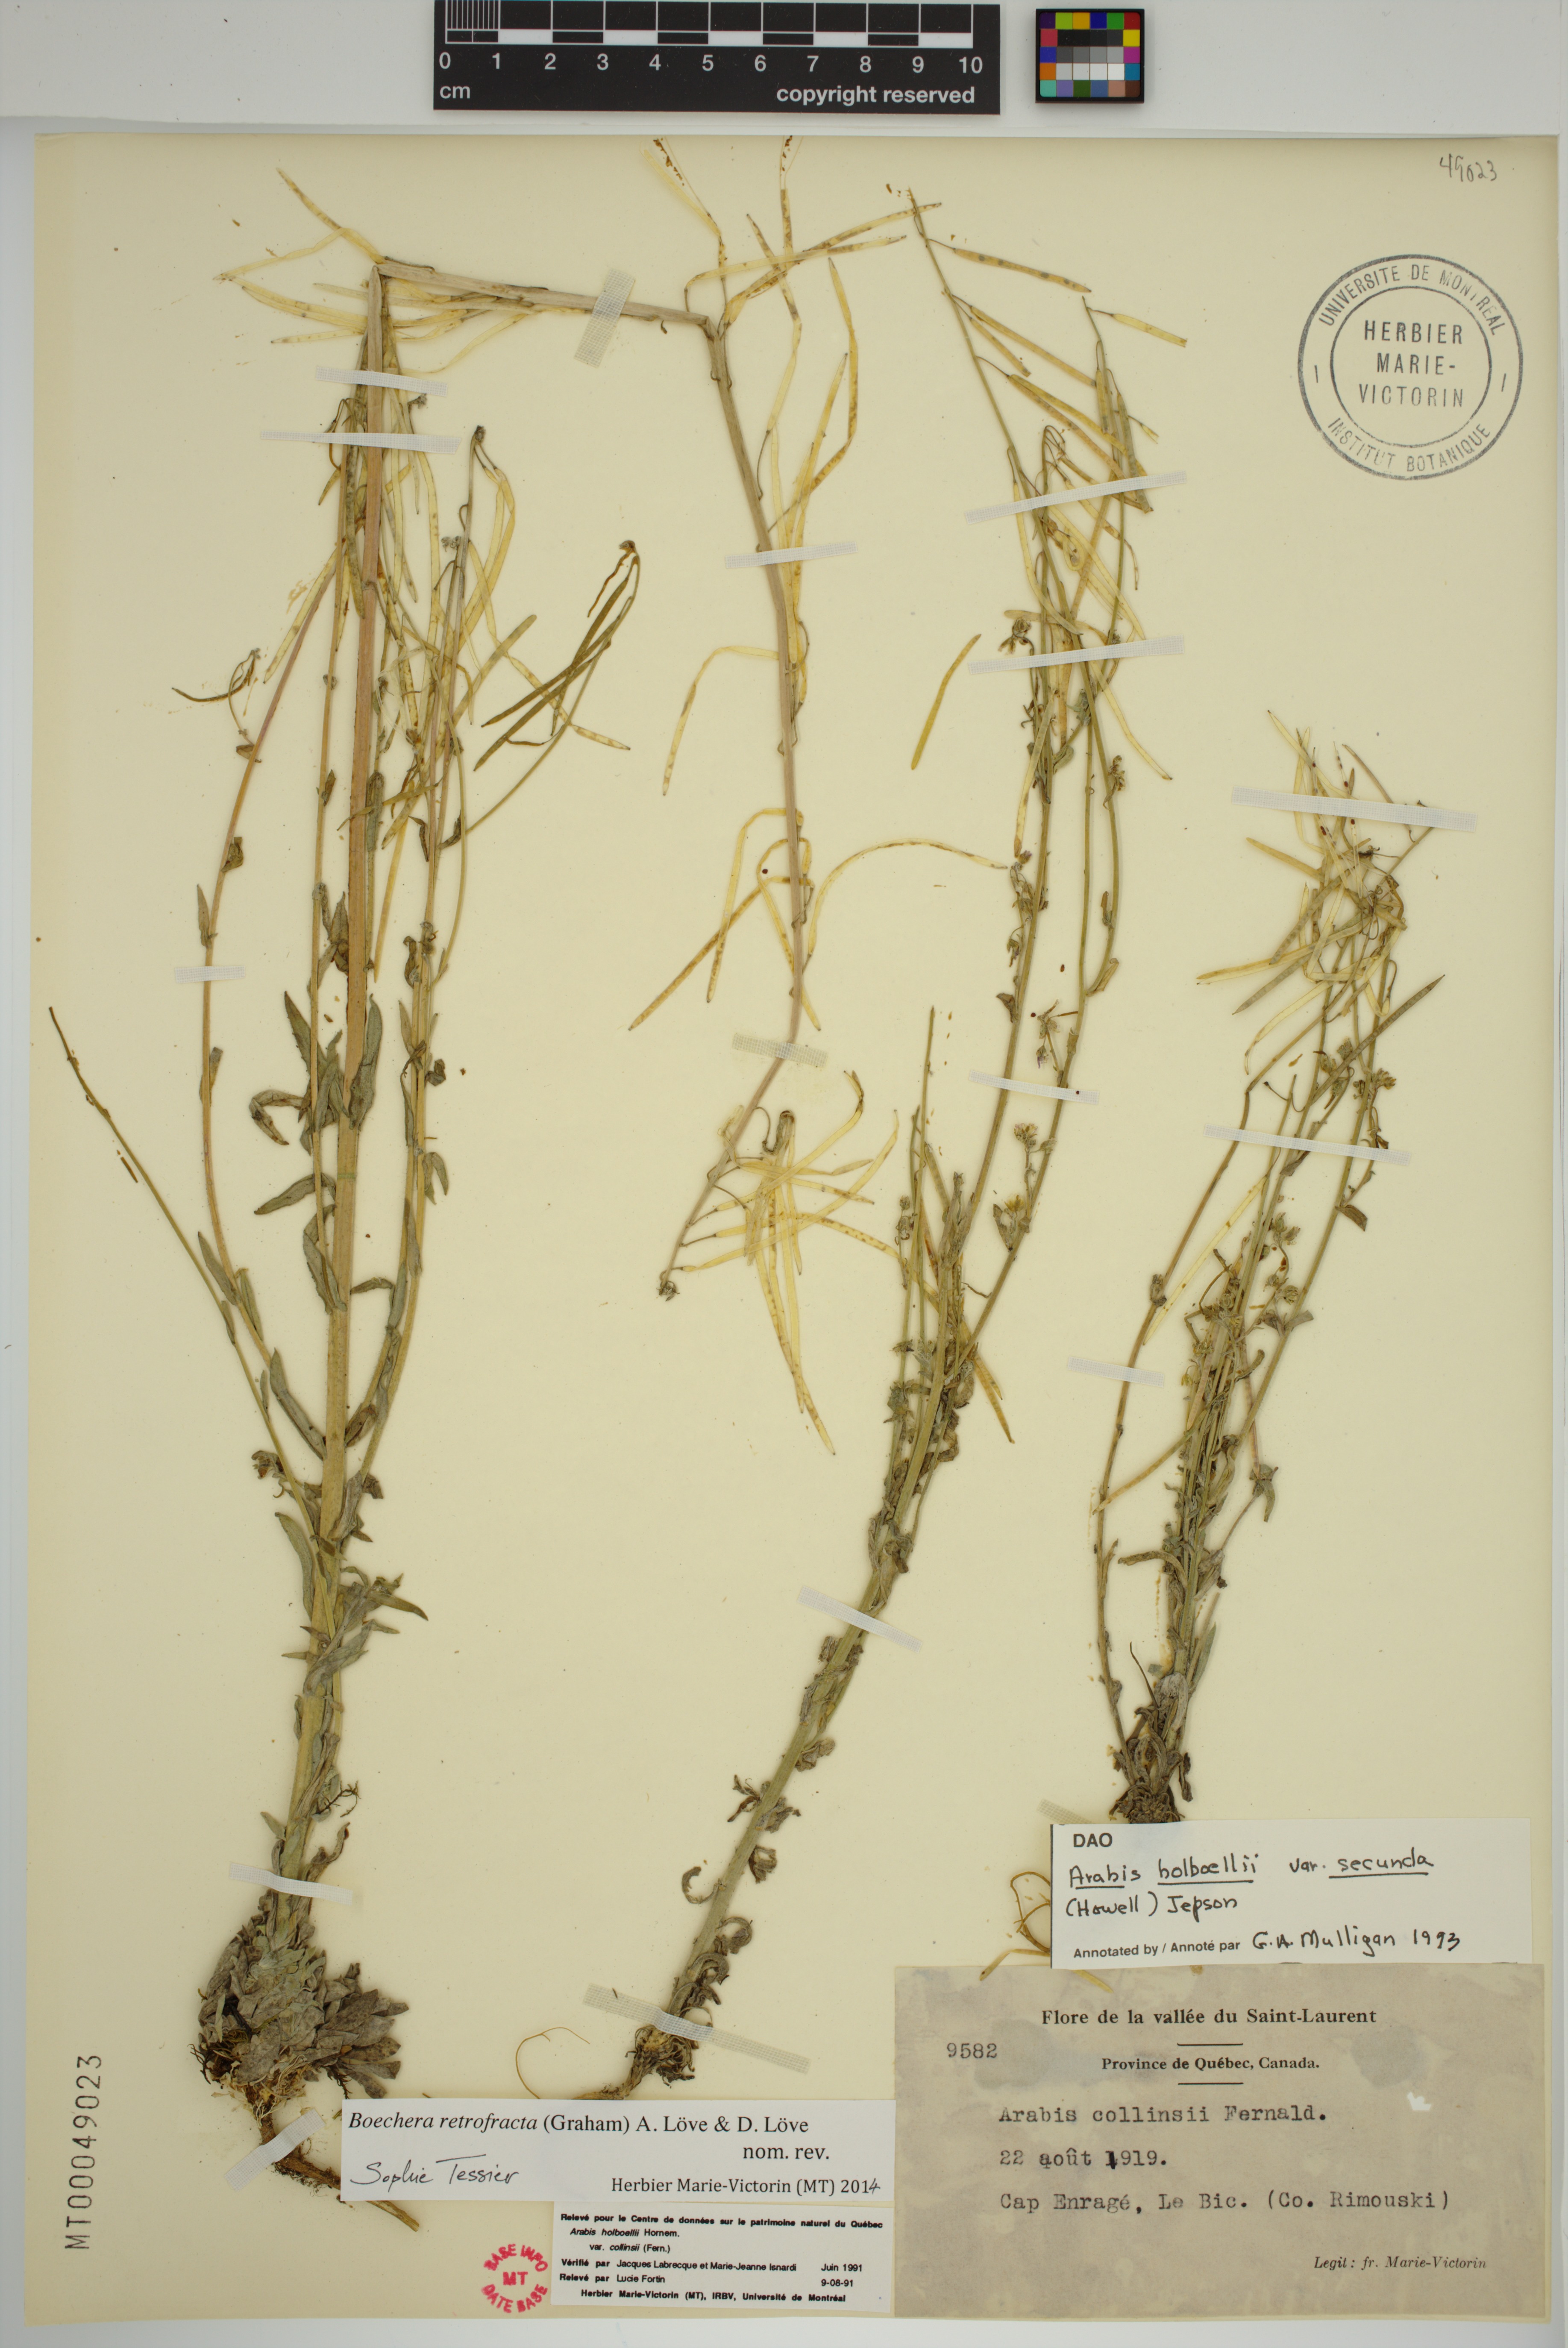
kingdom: Plantae
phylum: Tracheophyta
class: Magnoliopsida
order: Brassicales
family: Brassicaceae
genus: Boechera
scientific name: Boechera retrofracta
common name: Dangling suncress
